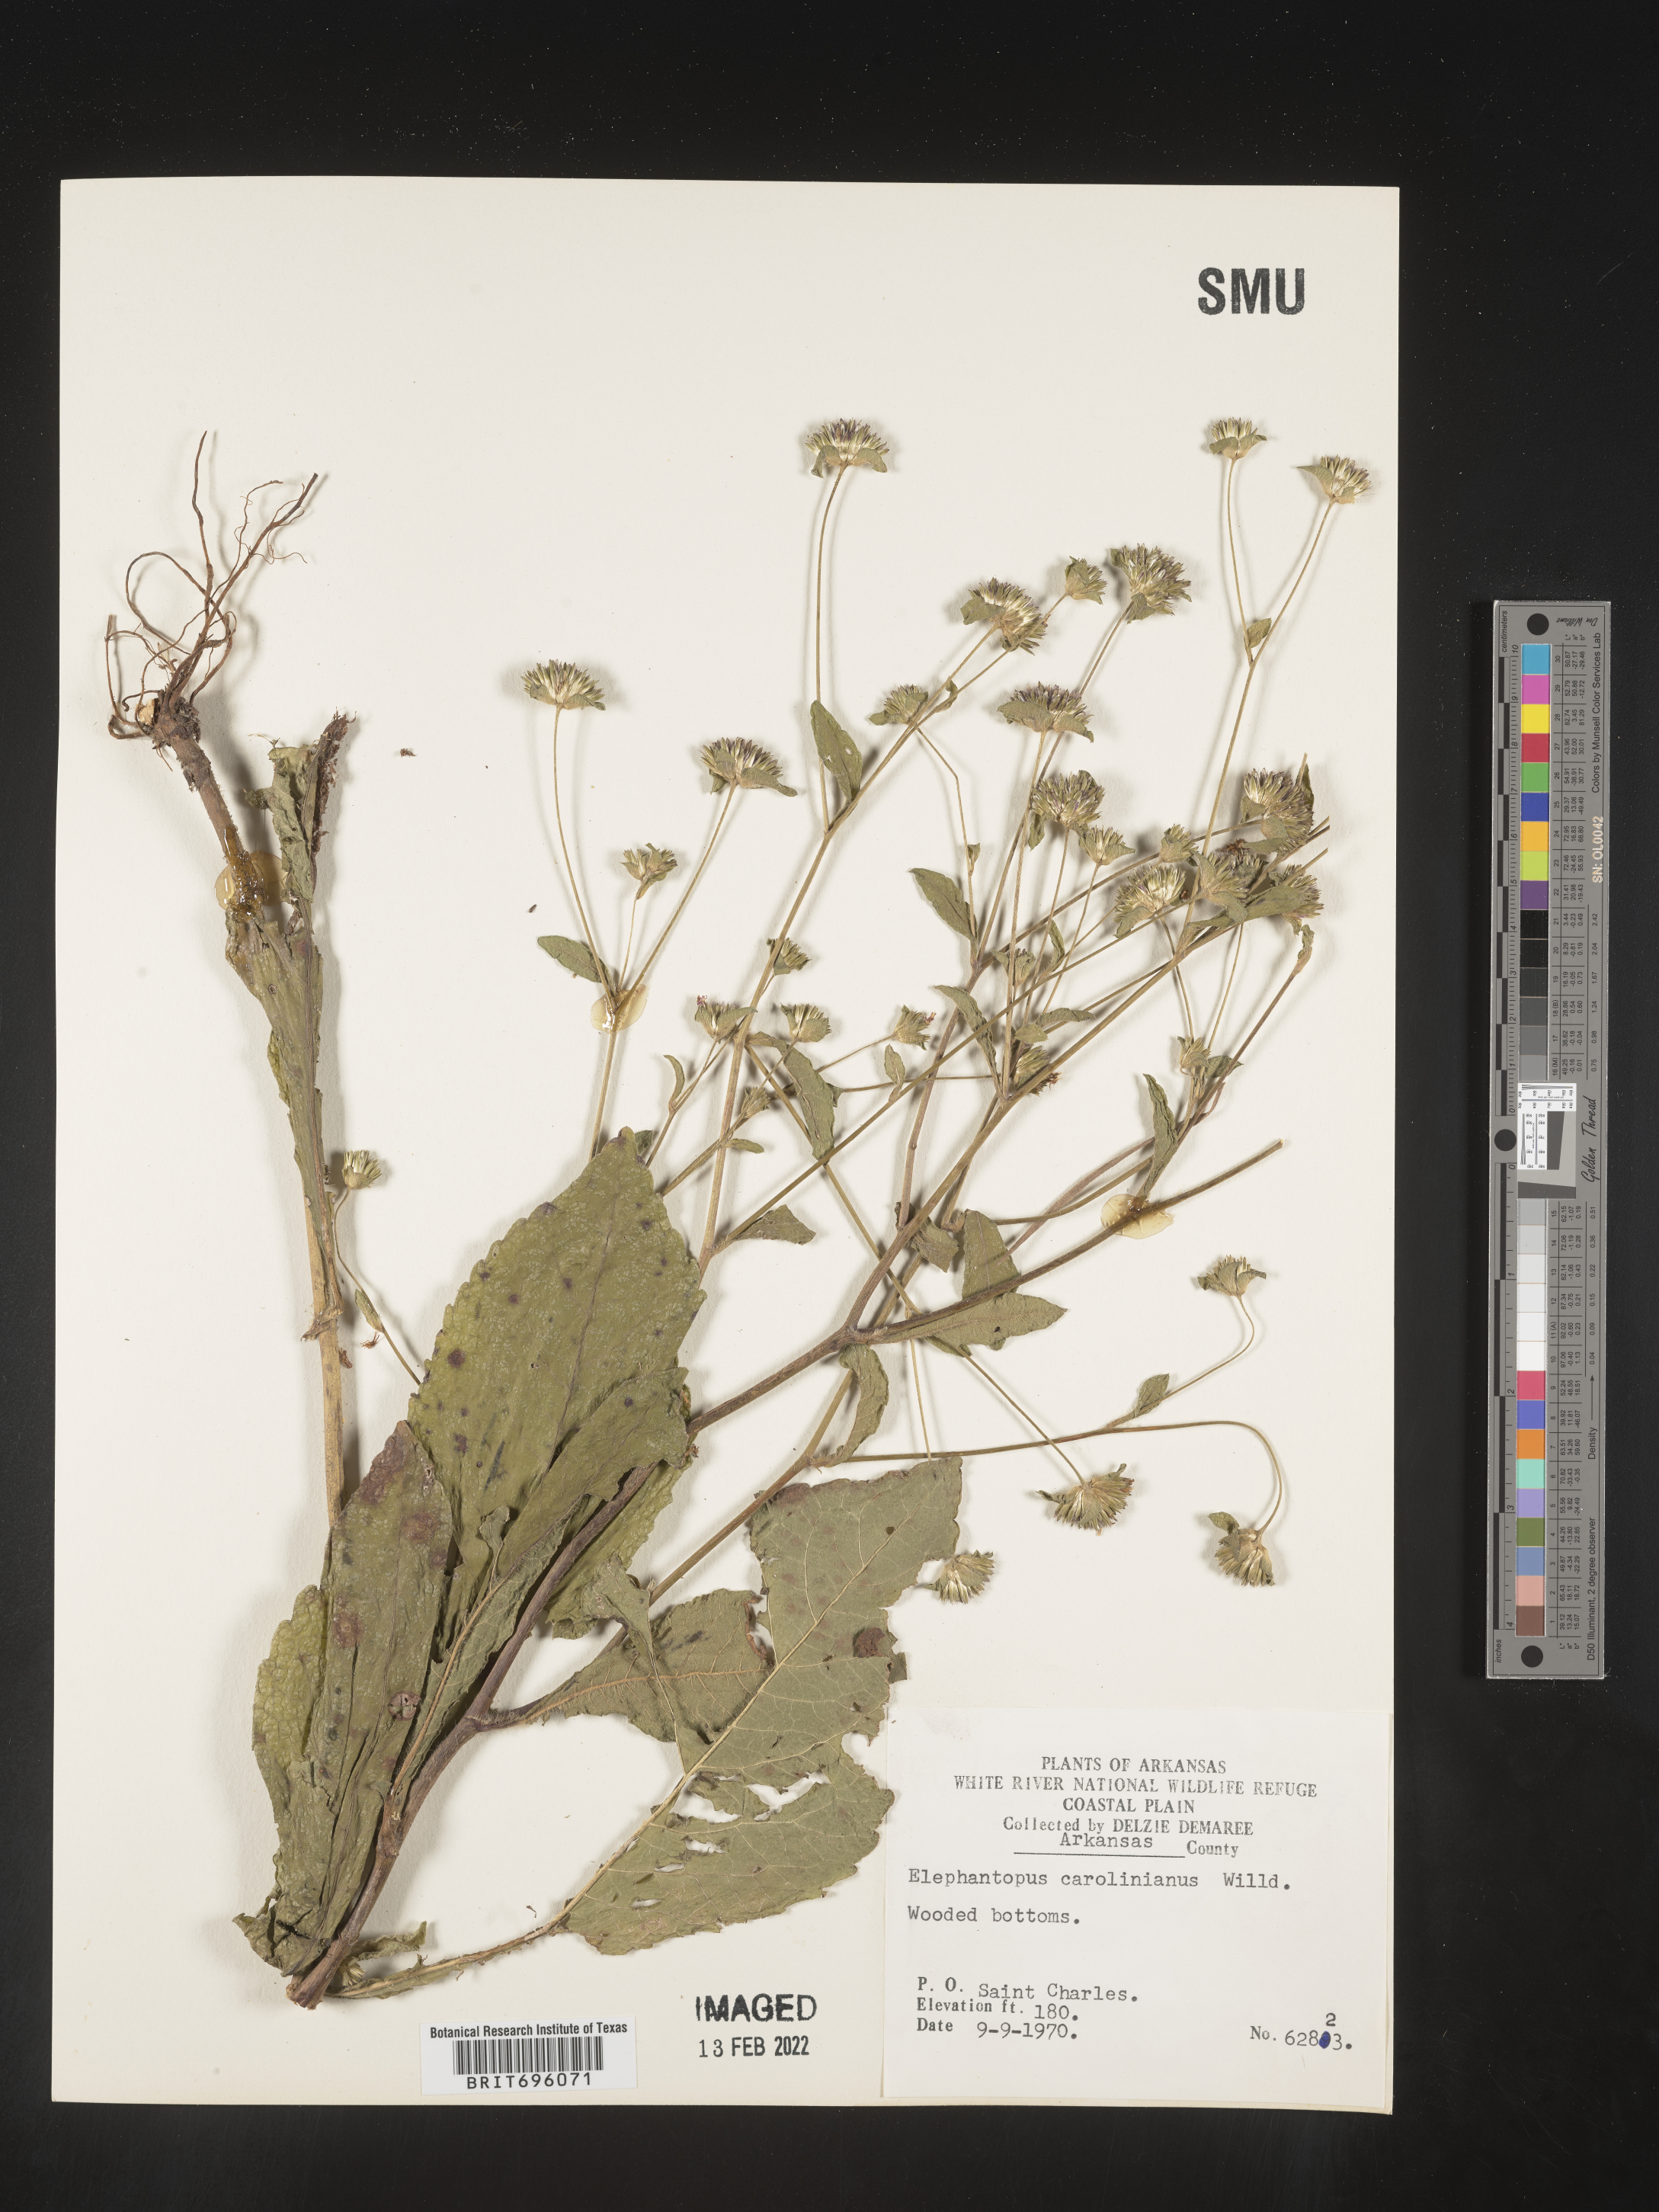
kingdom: Plantae
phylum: Tracheophyta
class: Magnoliopsida
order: Asterales
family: Asteraceae
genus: Elephantopus
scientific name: Elephantopus carolinianus
